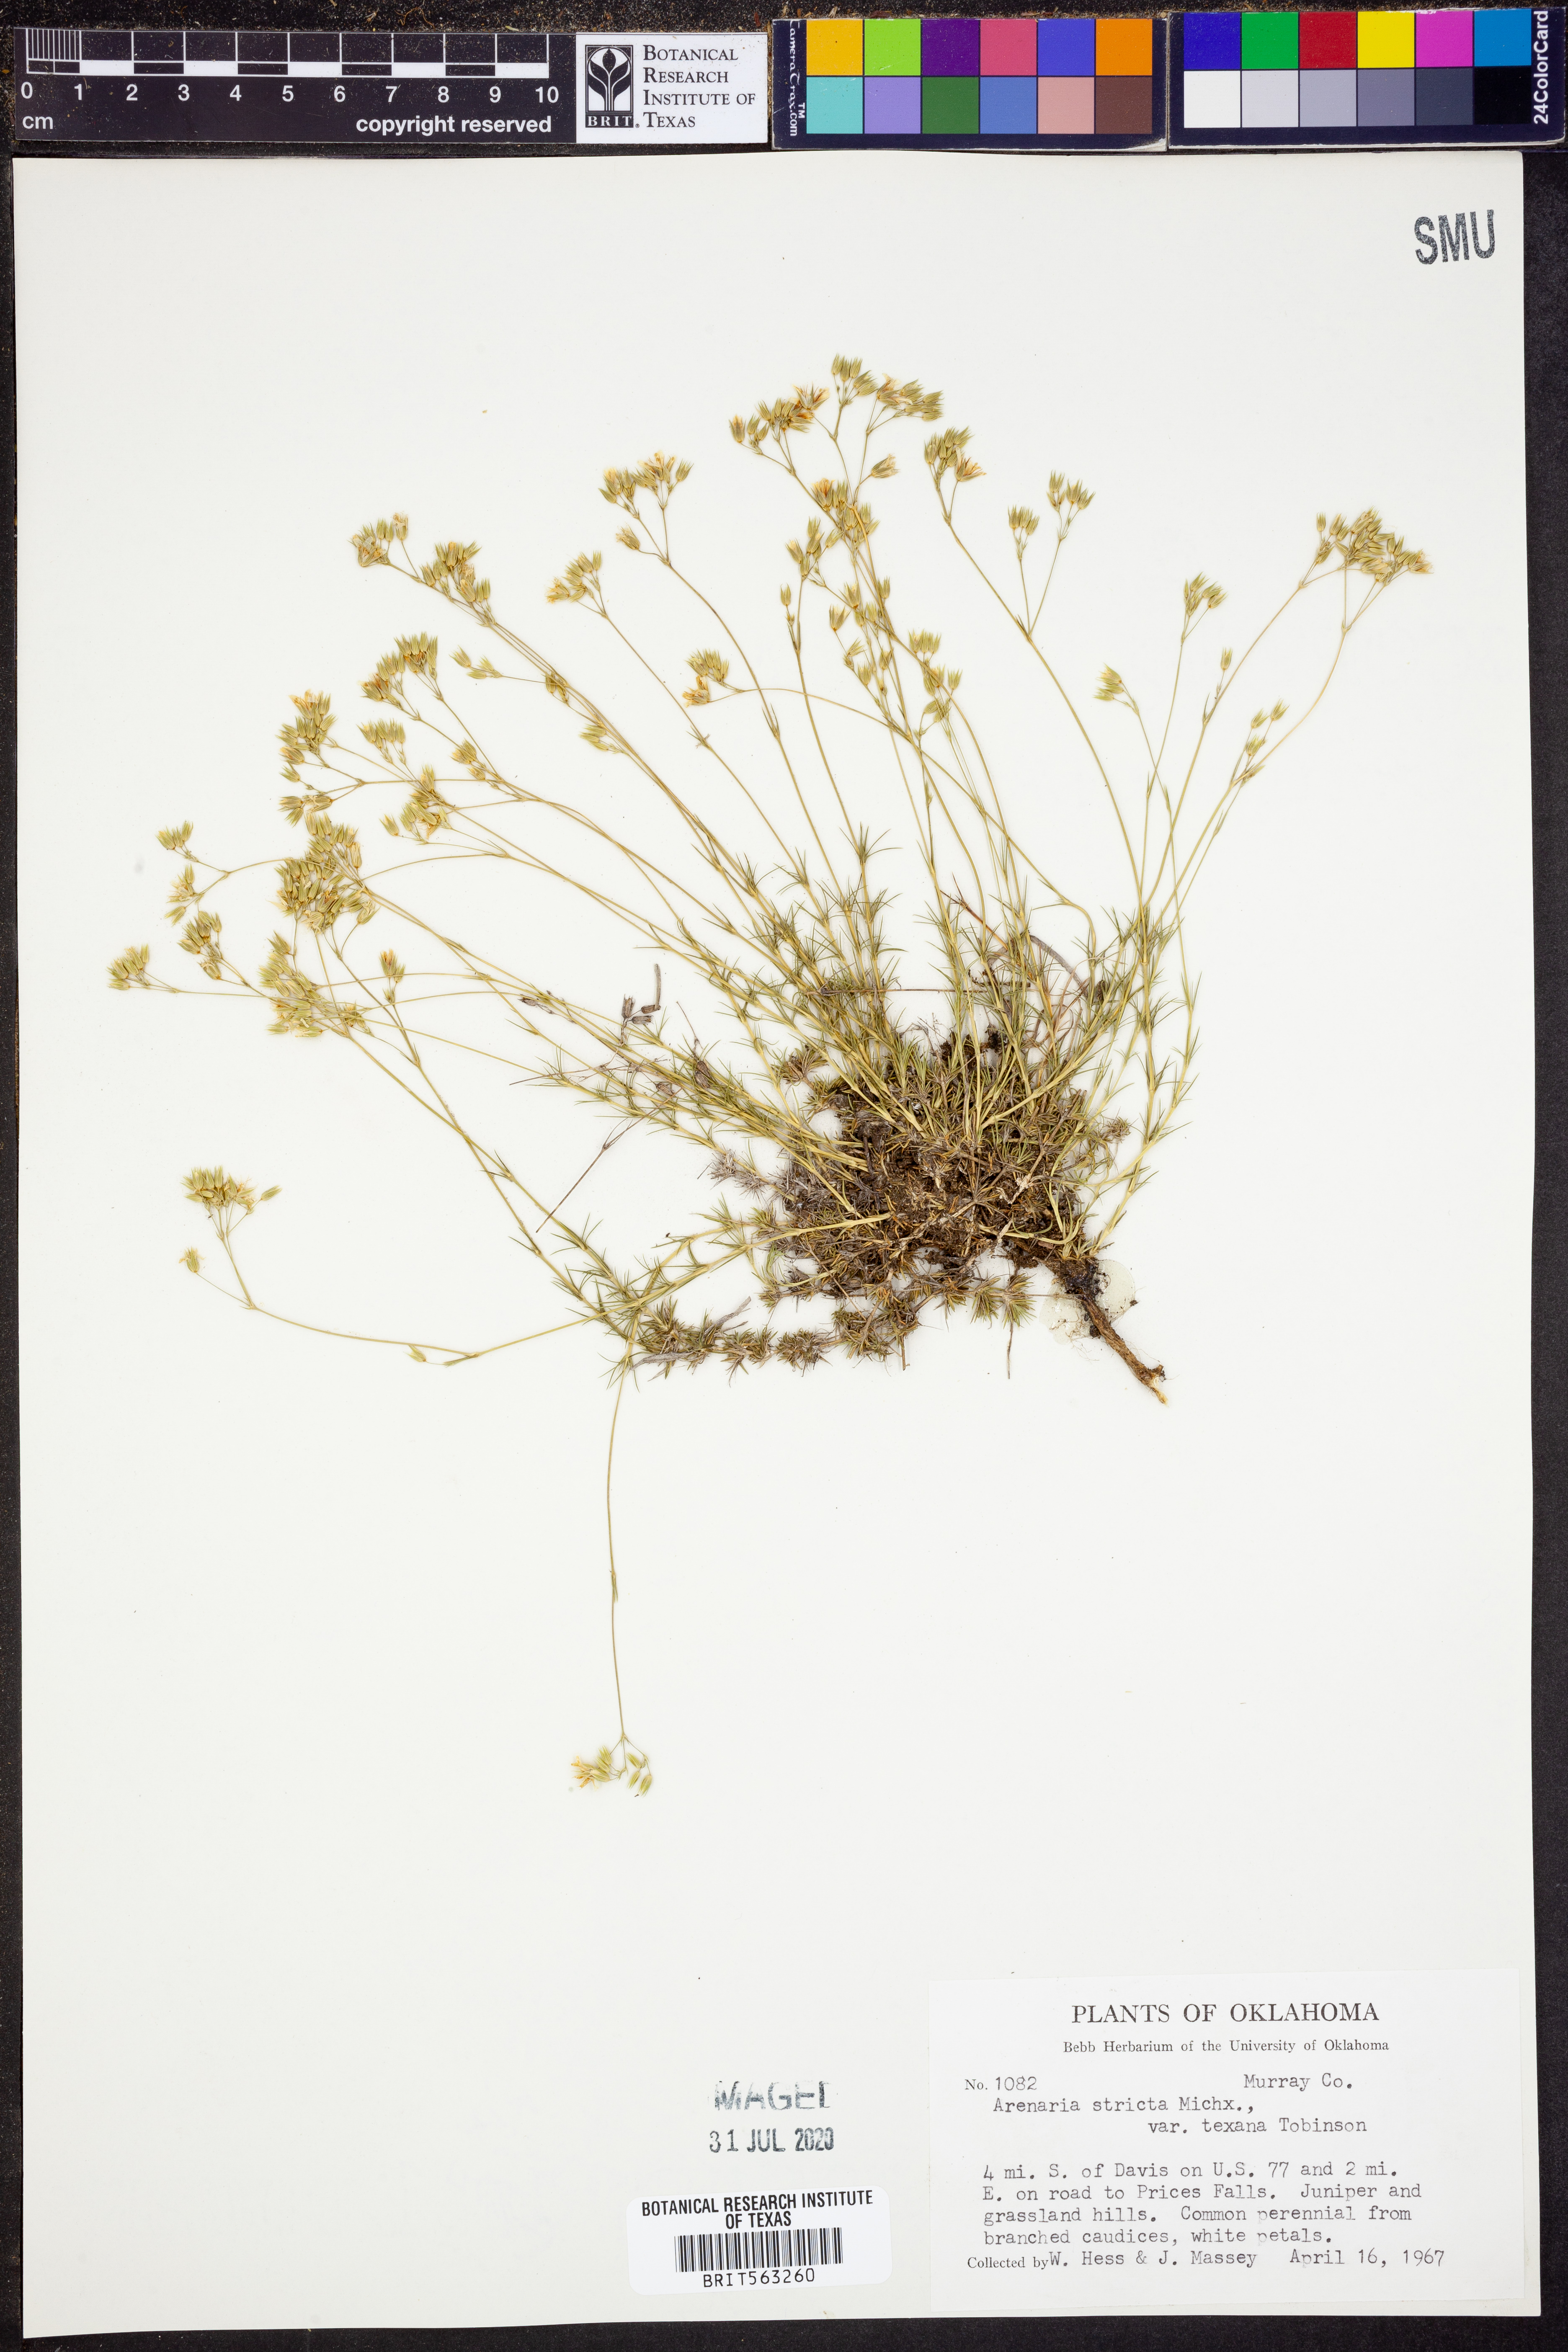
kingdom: Plantae
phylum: Tracheophyta
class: Magnoliopsida
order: Caryophyllales
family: Caryophyllaceae
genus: Sabulina
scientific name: Sabulina michauxii
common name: Michaux's stitchwort
